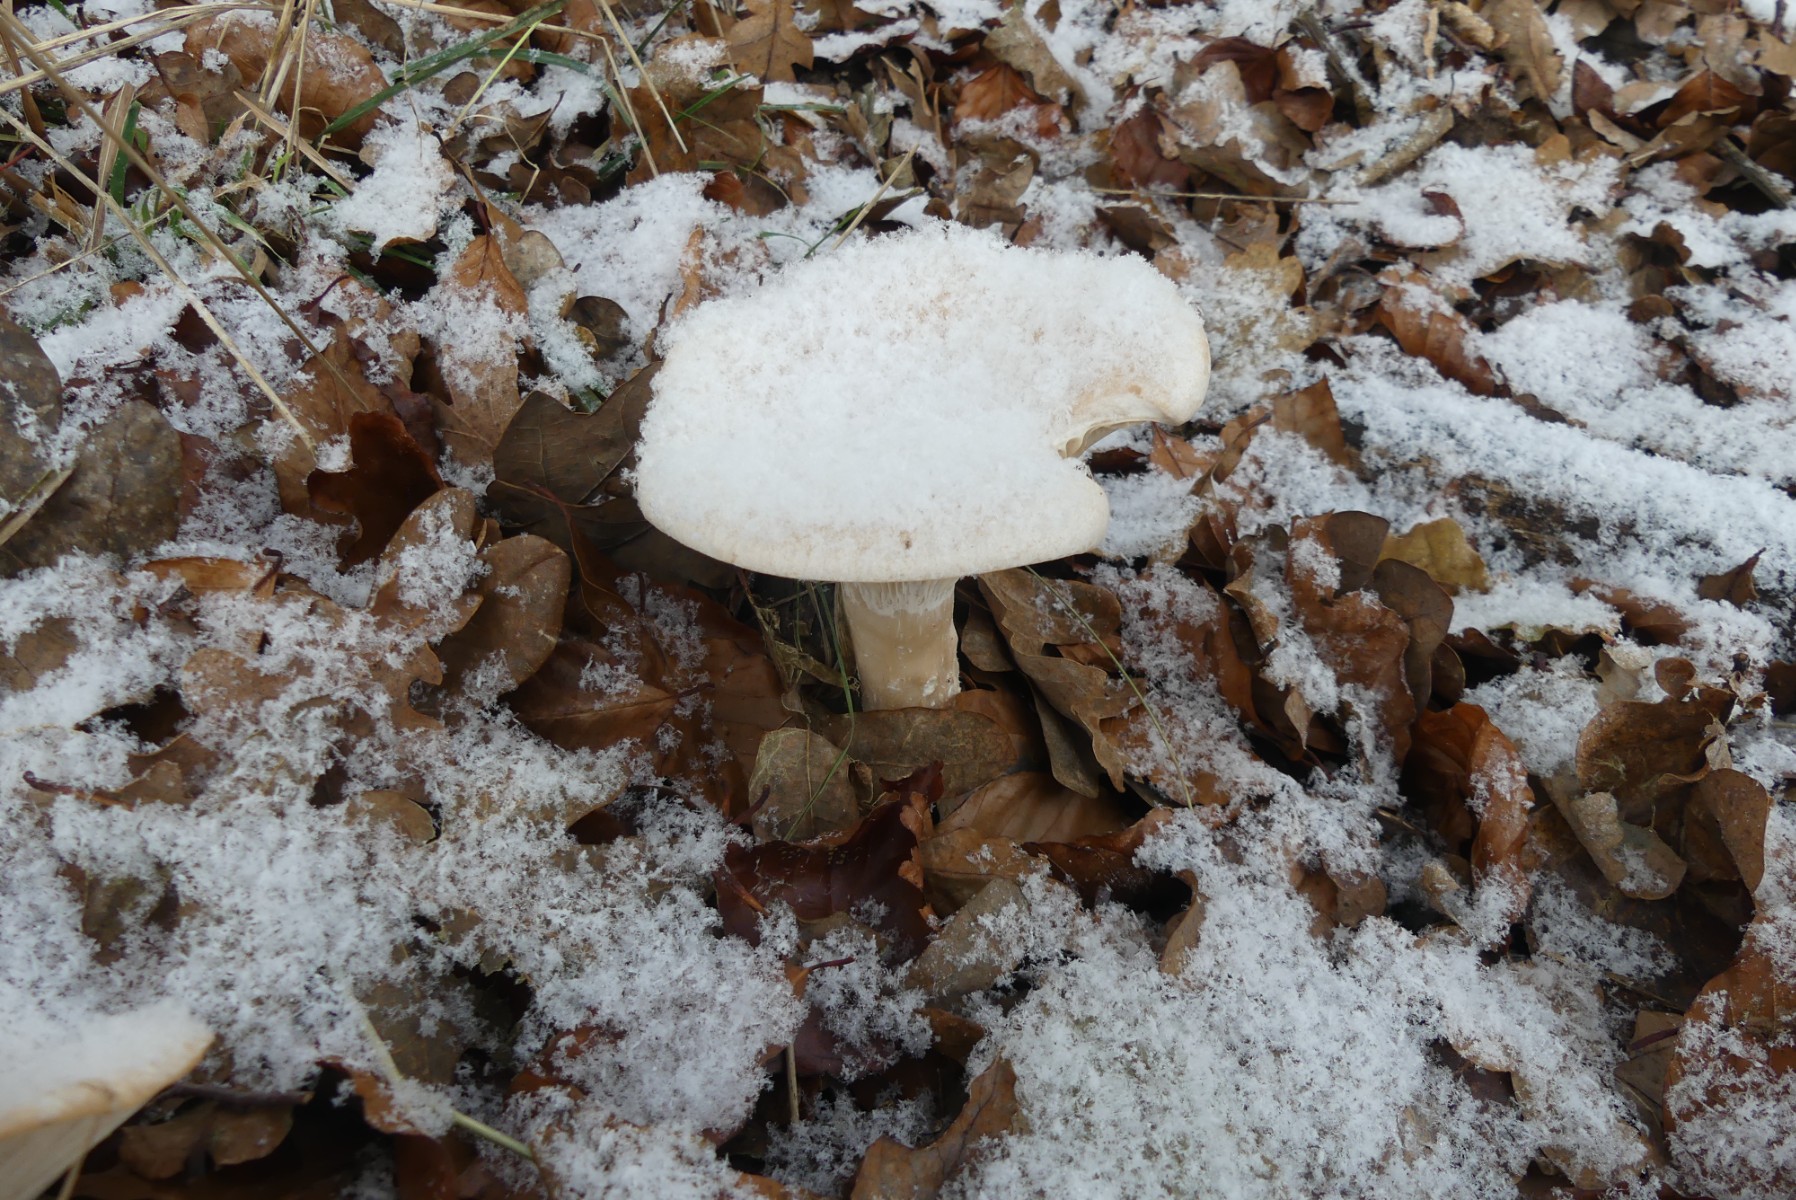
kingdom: Fungi
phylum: Basidiomycota
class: Agaricomycetes
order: Agaricales
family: Tricholomataceae
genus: Infundibulicybe
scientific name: Infundibulicybe geotropa
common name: stor tragthat
